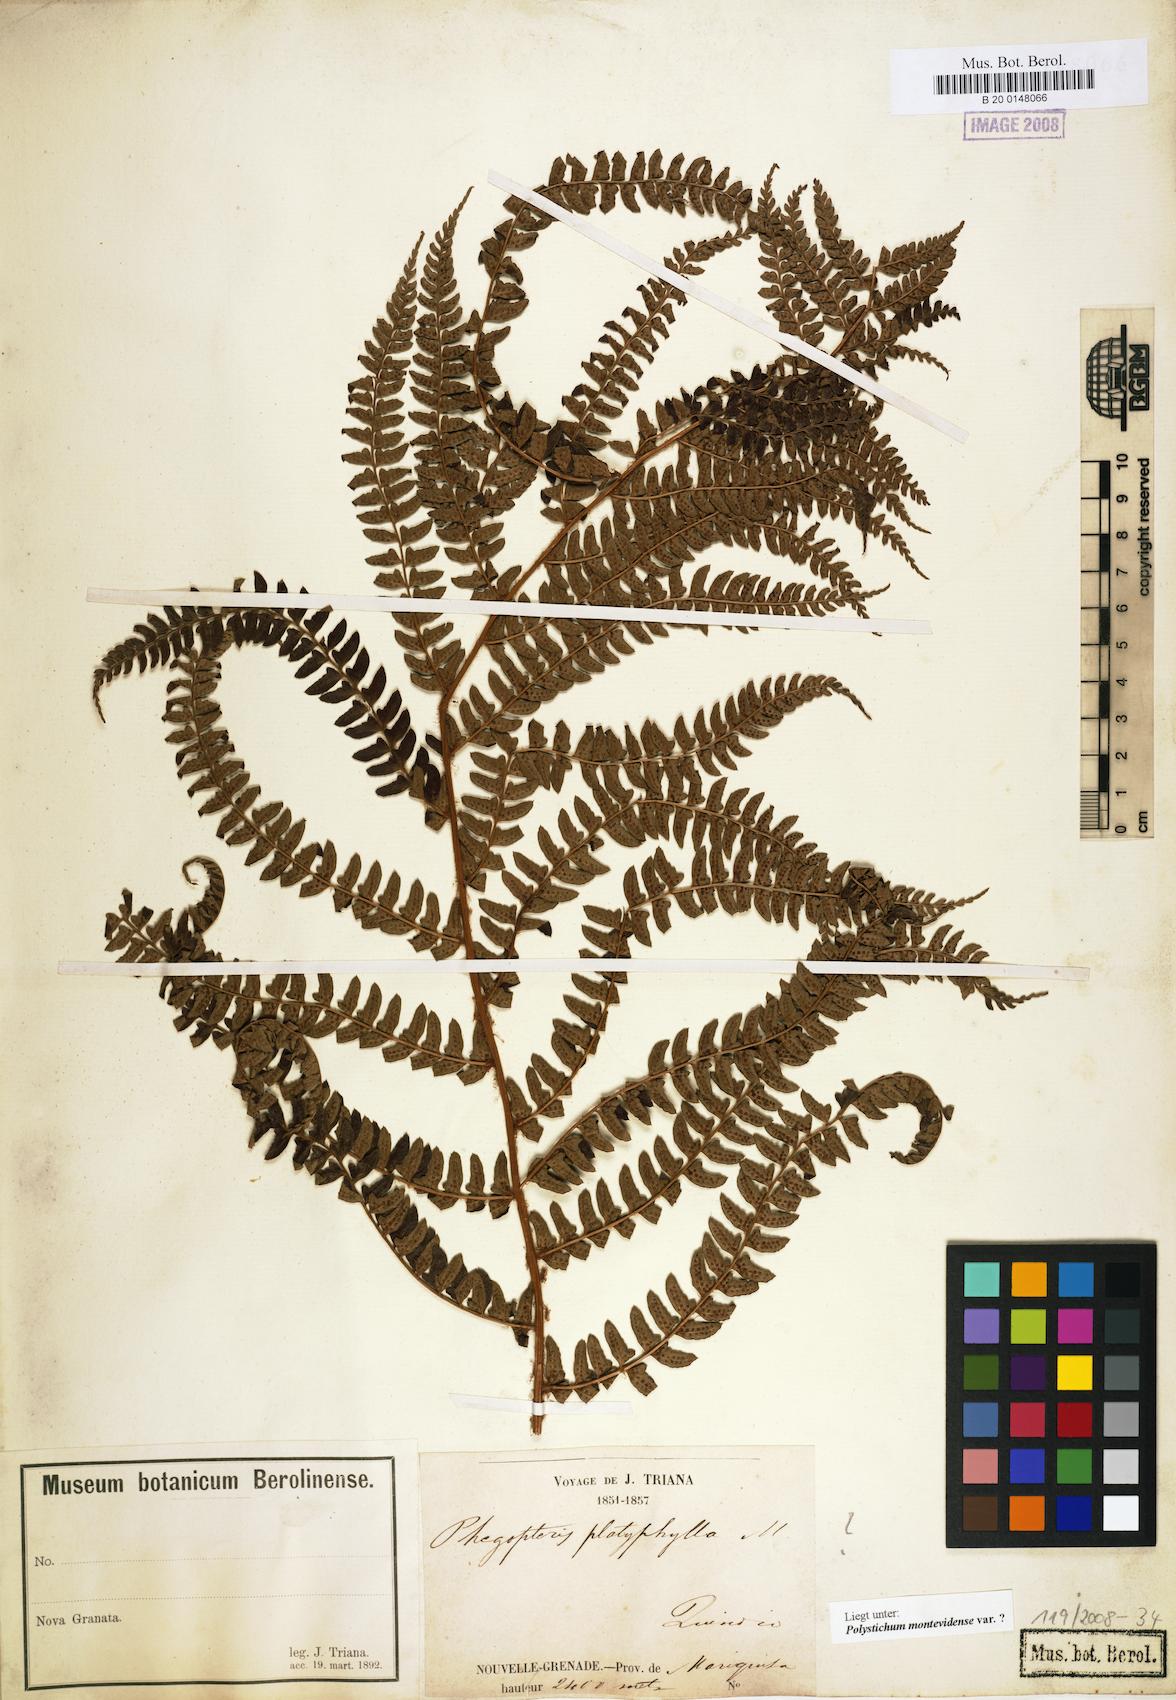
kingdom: Plantae
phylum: Tracheophyta
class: Polypodiopsida
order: Polypodiales
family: Dryopteridaceae
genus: Polystichum
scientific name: Polystichum montevidense
